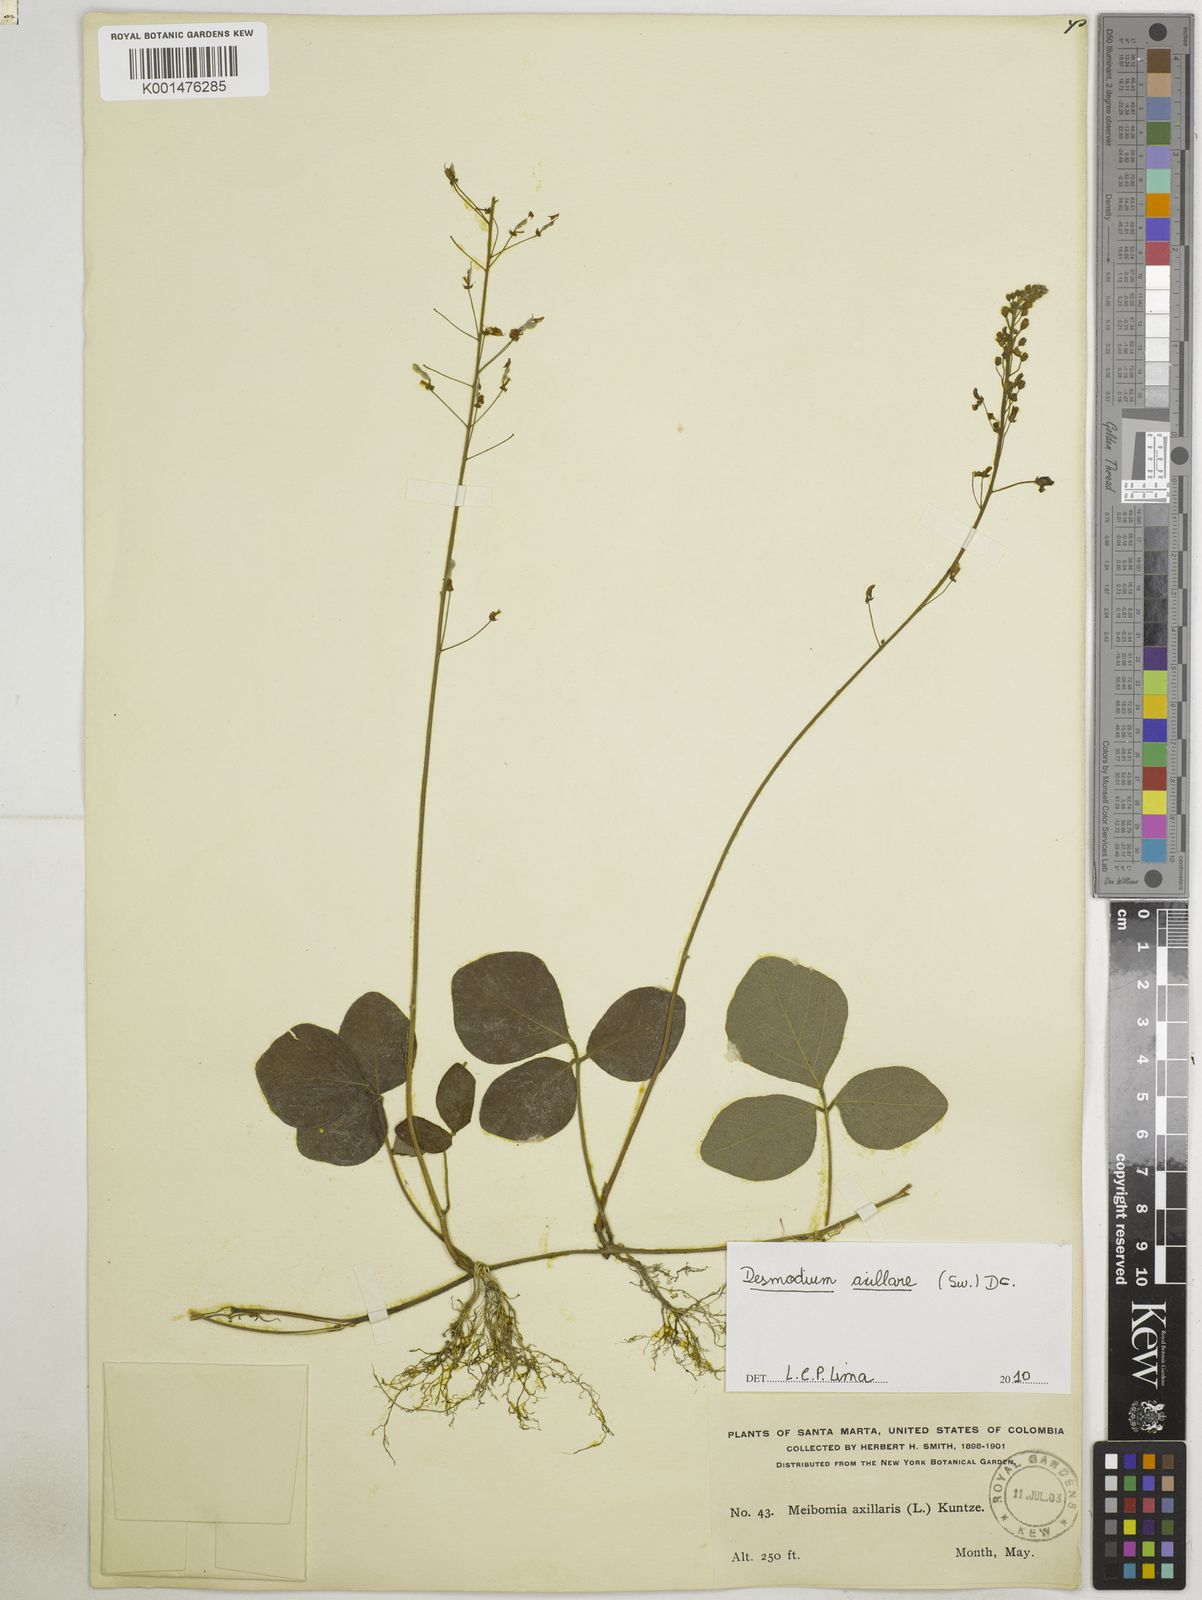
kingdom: Plantae
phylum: Tracheophyta
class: Magnoliopsida
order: Fabales
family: Fabaceae
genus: Desmodium
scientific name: Desmodium axillare
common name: Wire with
